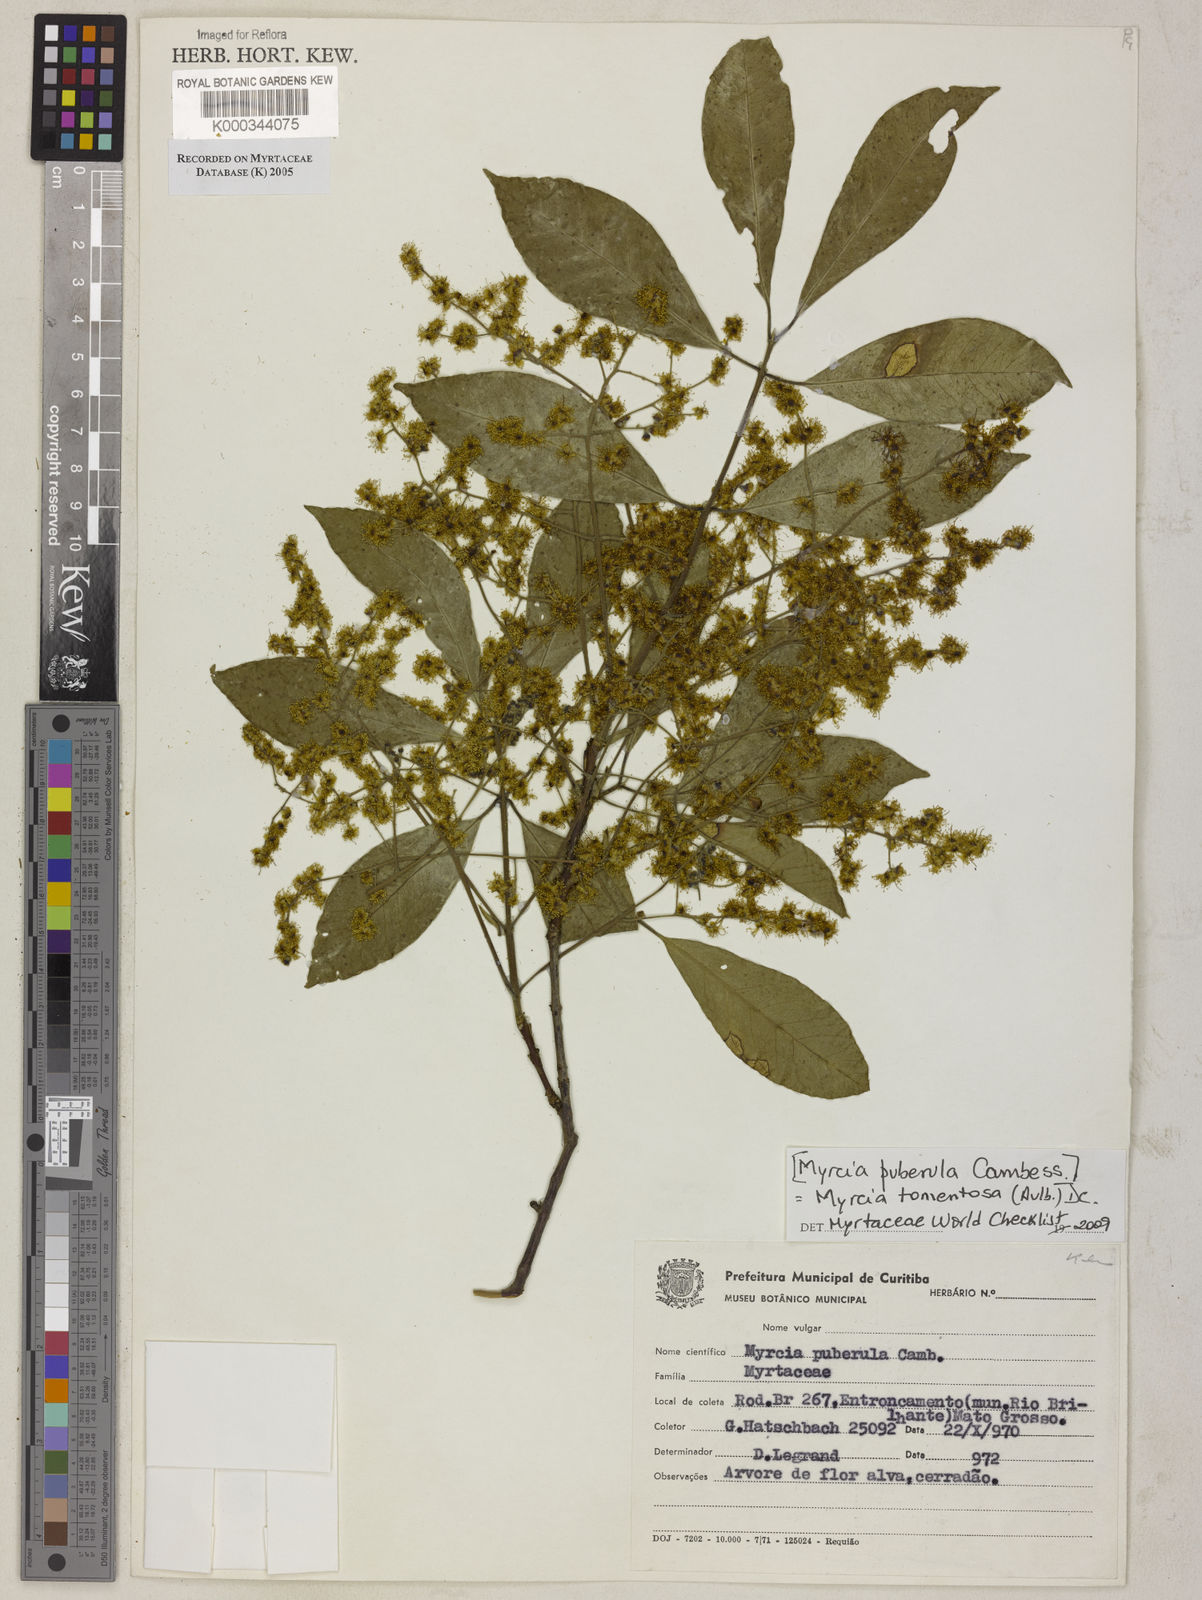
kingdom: Plantae
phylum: Tracheophyta
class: Magnoliopsida
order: Myrtales
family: Myrtaceae
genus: Myrcia
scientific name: Myrcia tomentosa
